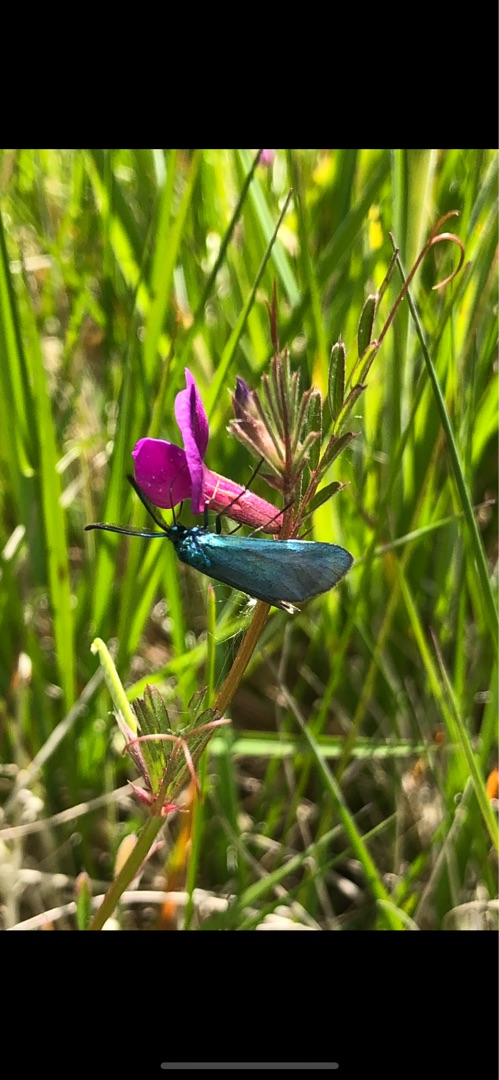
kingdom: Animalia
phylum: Arthropoda
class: Insecta
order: Lepidoptera
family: Zygaenidae
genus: Adscita
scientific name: Adscita statices
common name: Metalvinge
